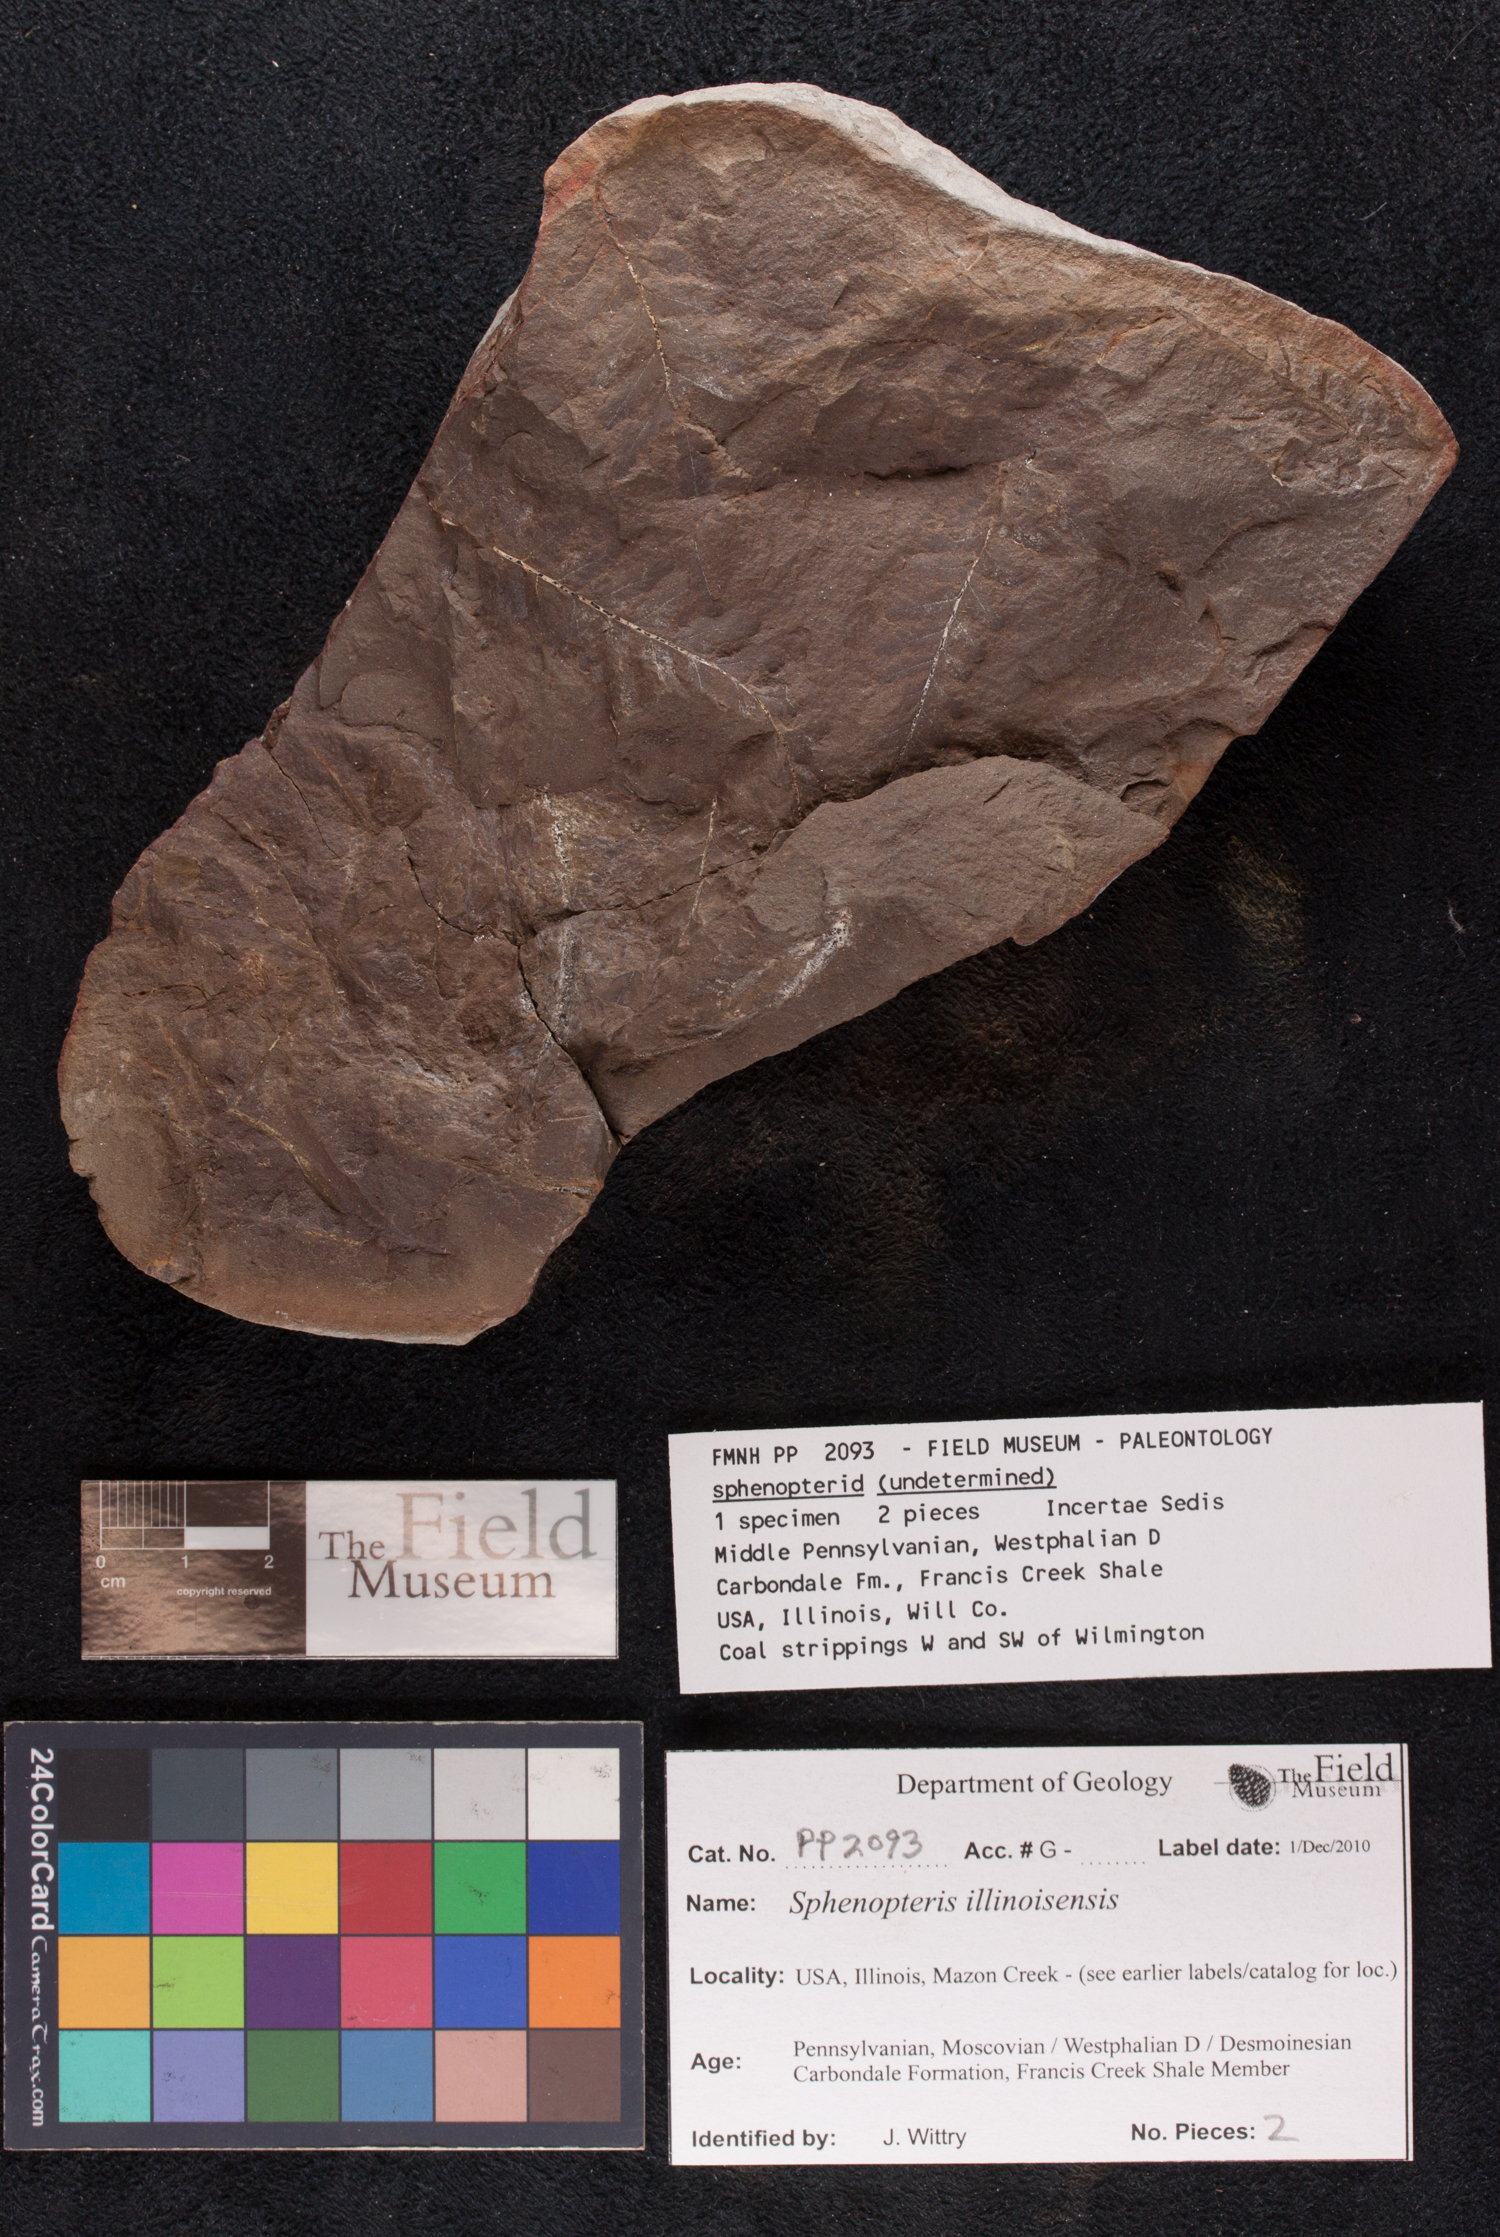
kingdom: Plantae
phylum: Tracheophyta
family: Lyginopteridaceae
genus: Sphenopteris
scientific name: Sphenopteris
